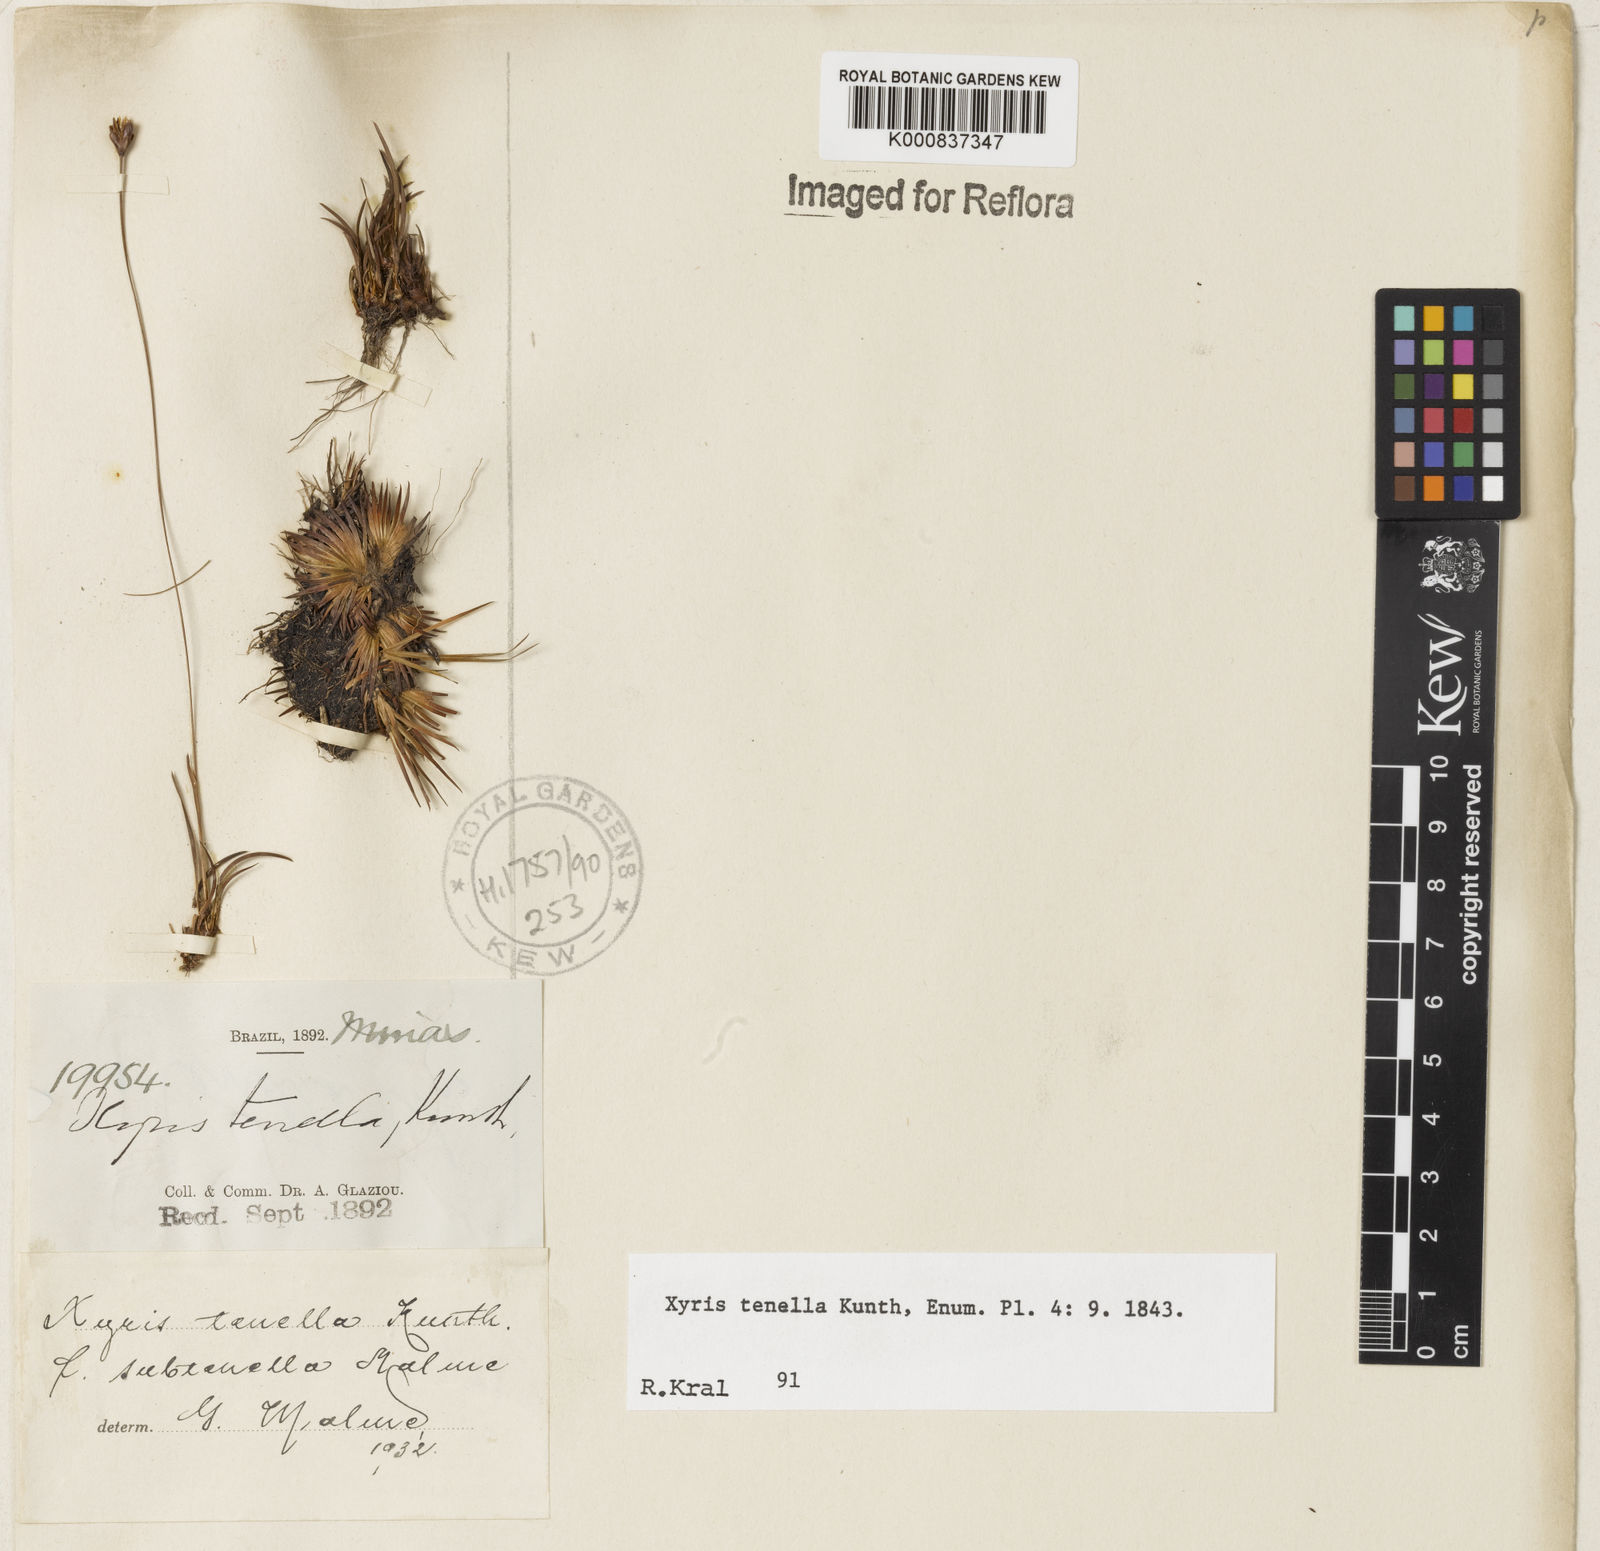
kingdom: Plantae
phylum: Tracheophyta
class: Liliopsida
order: Poales
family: Xyridaceae
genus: Xyris
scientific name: Xyris tenella
